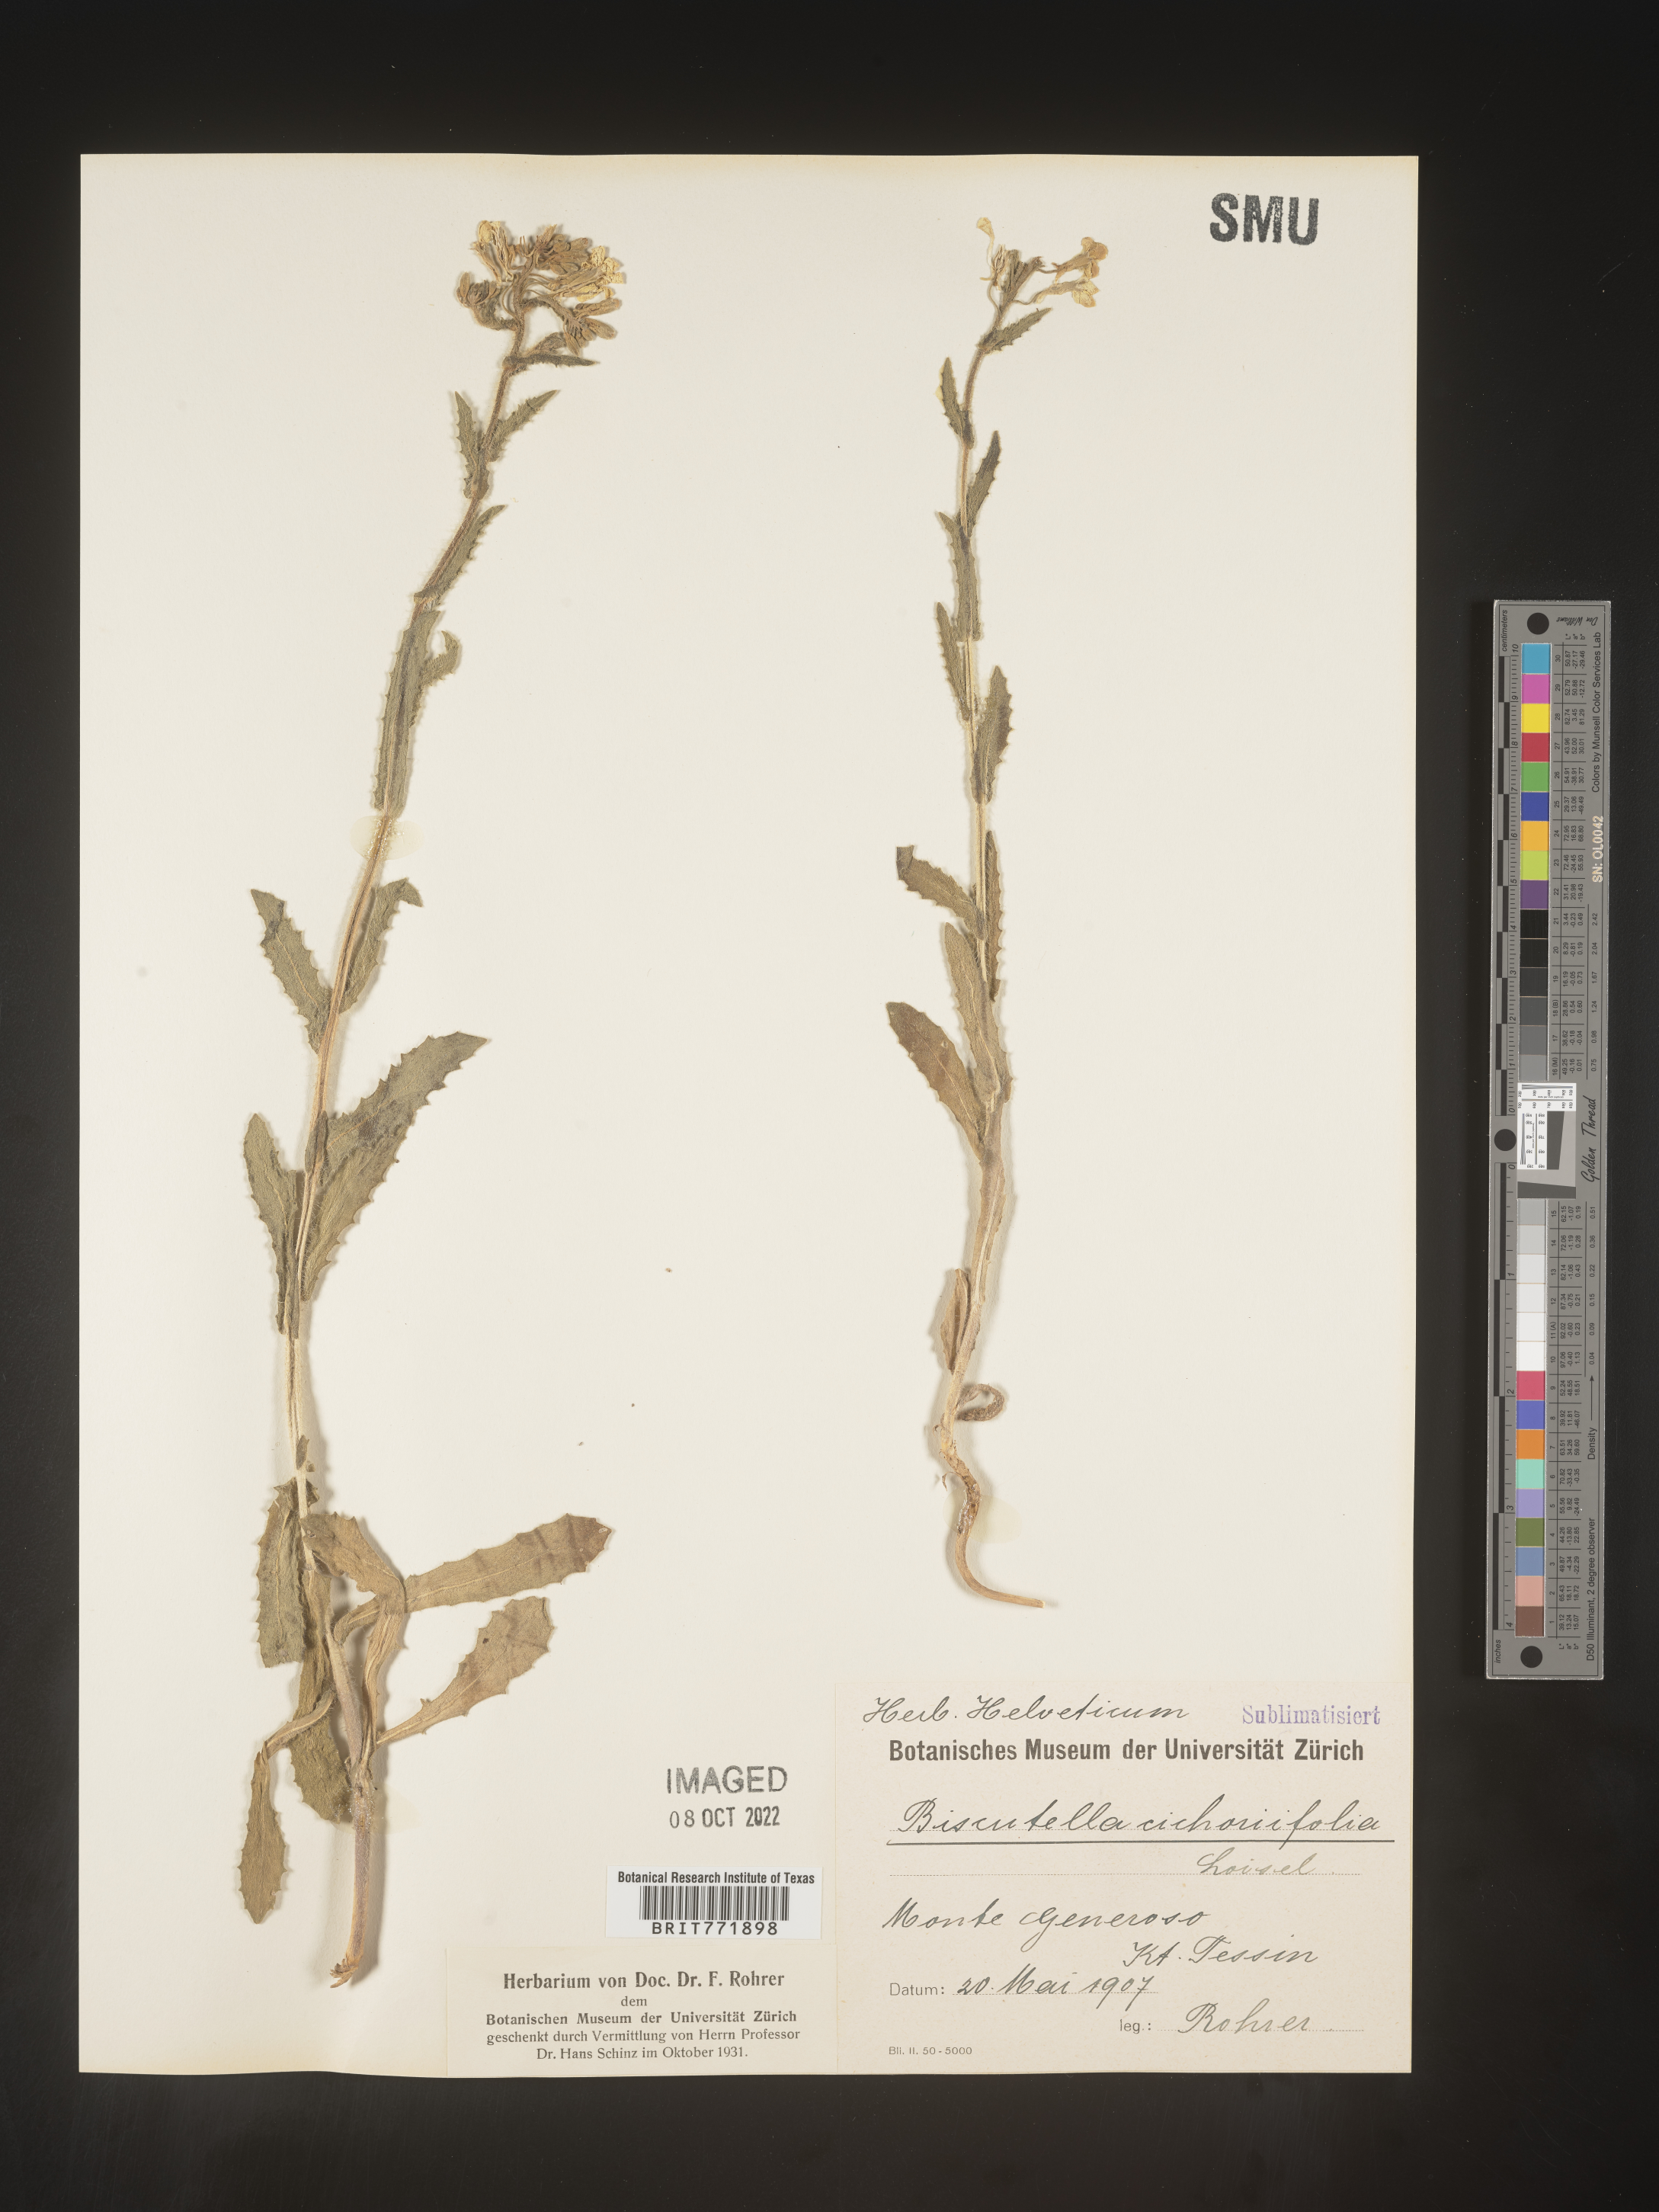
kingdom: Plantae
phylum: Tracheophyta
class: Magnoliopsida
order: Brassicales
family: Brassicaceae
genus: Biscutella
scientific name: Biscutella
